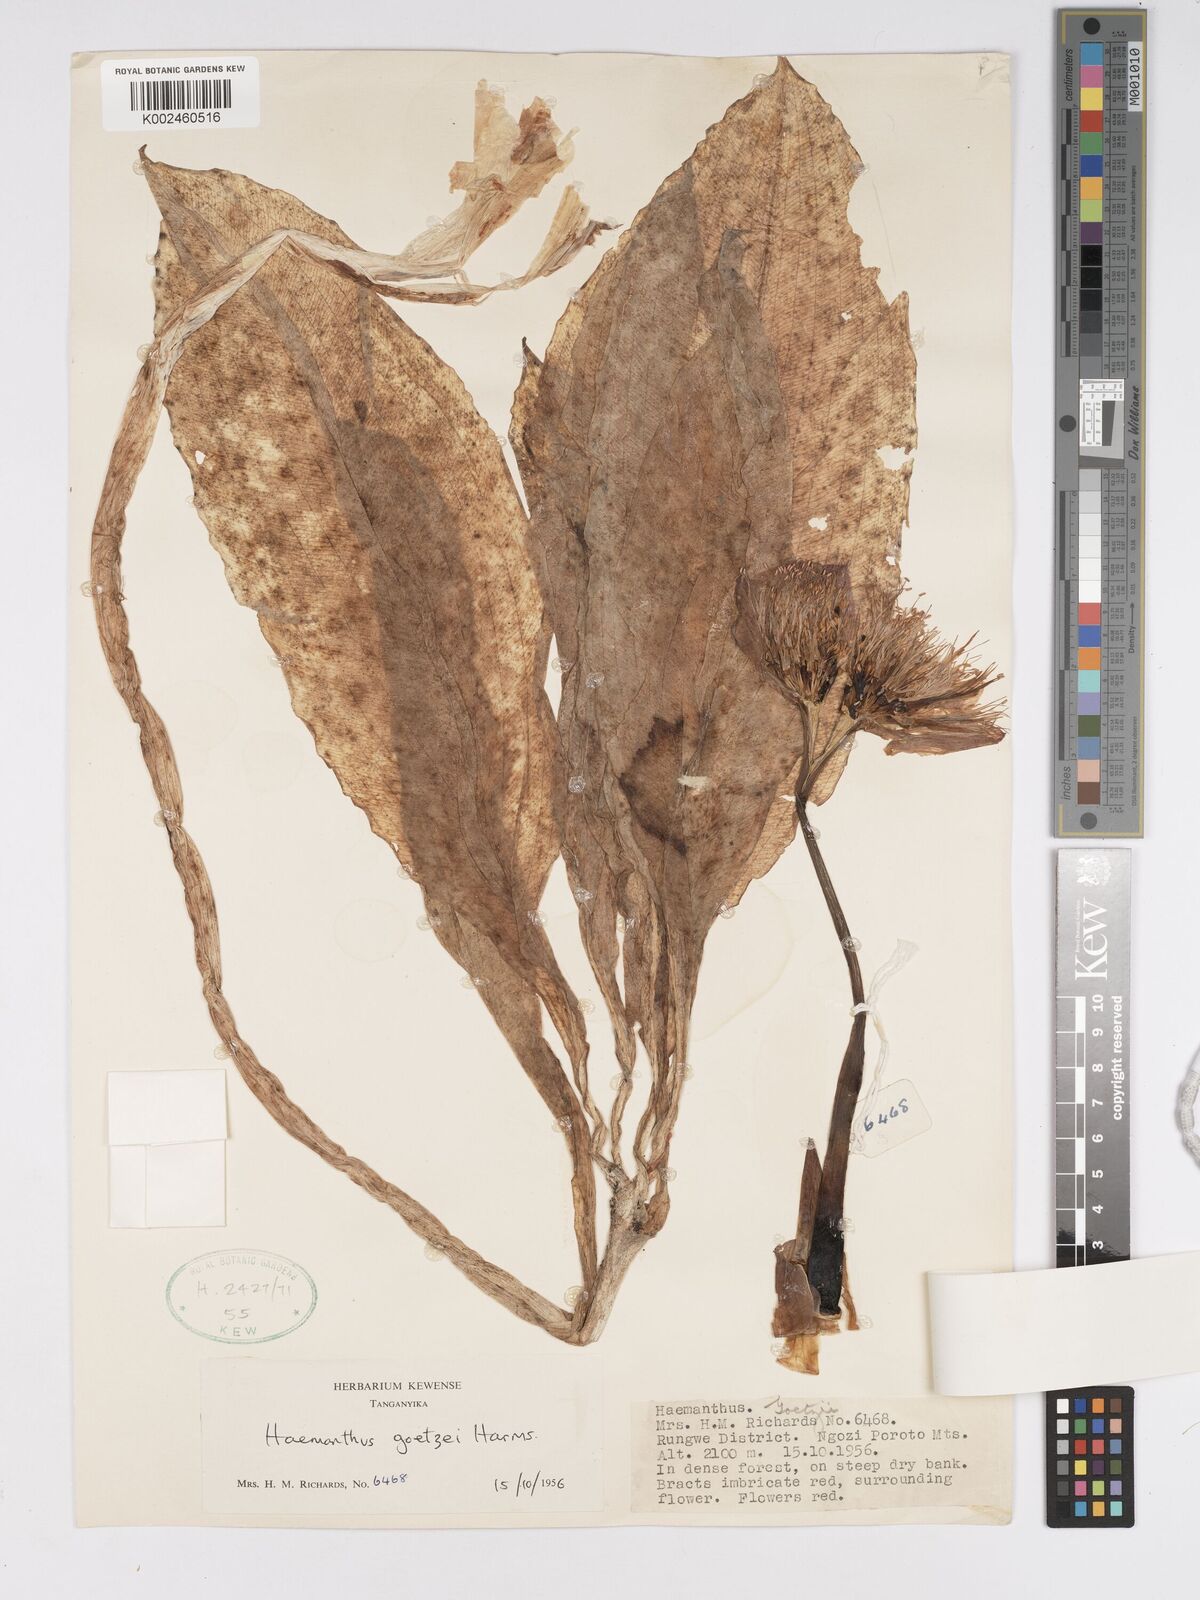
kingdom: Plantae
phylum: Tracheophyta
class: Liliopsida
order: Asparagales
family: Amaryllidaceae
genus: Scadoxus
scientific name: Scadoxus puniceus
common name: Royal-paintbrush
